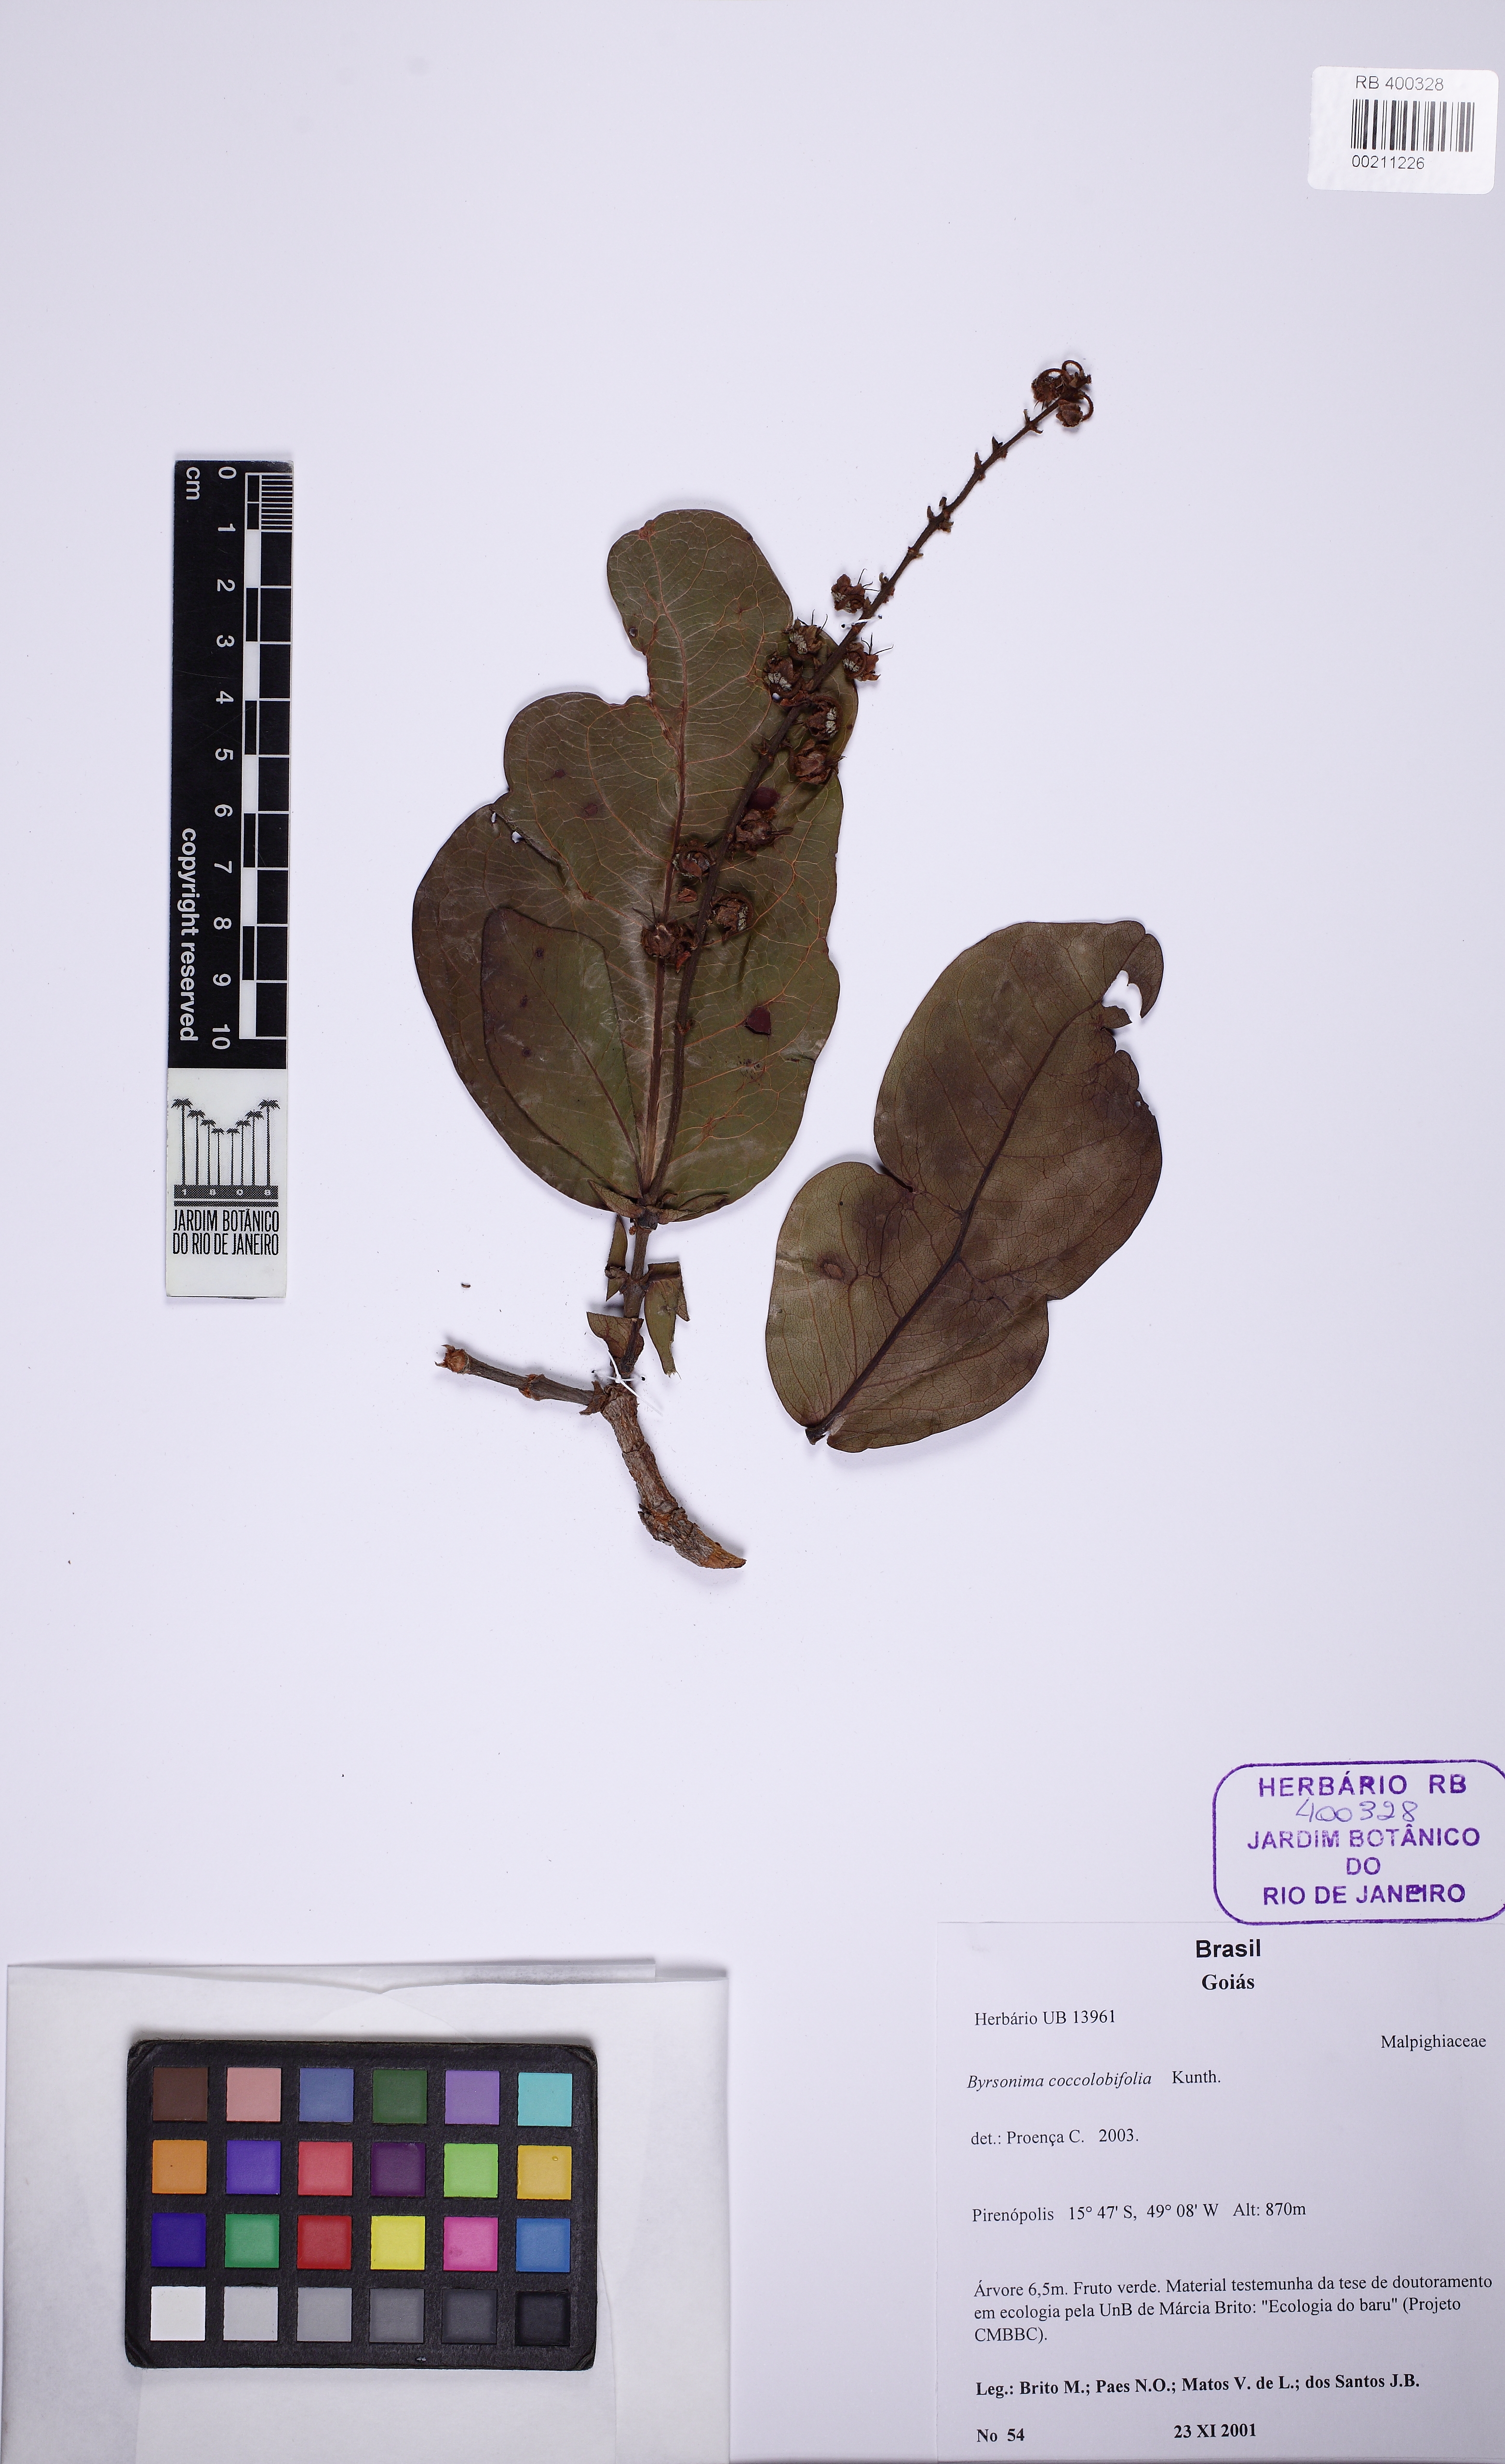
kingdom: Plantae
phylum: Tracheophyta
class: Magnoliopsida
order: Malpighiales
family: Malpighiaceae
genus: Byrsonima
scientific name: Byrsonima coccolobifolia
